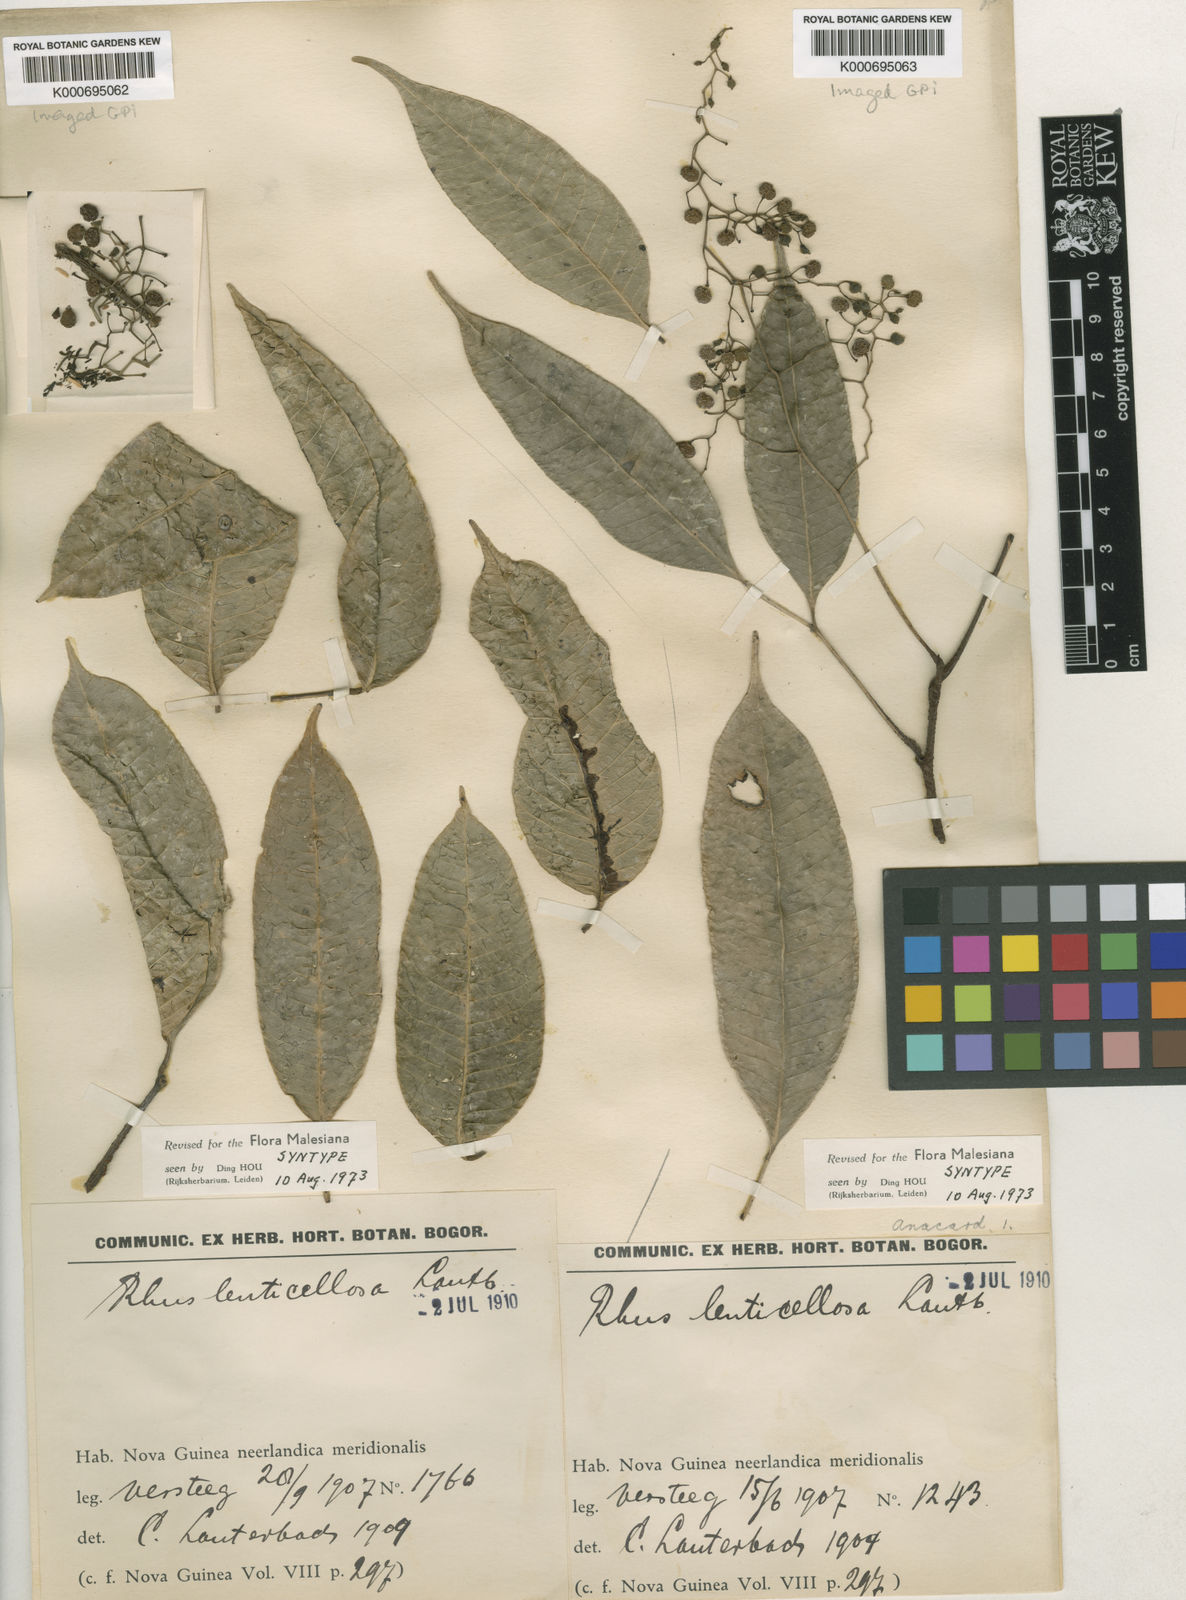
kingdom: Plantae
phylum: Tracheophyta
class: Magnoliopsida
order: Sapindales
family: Anacardiaceae
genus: Rhus
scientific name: Rhus lenticellosa
